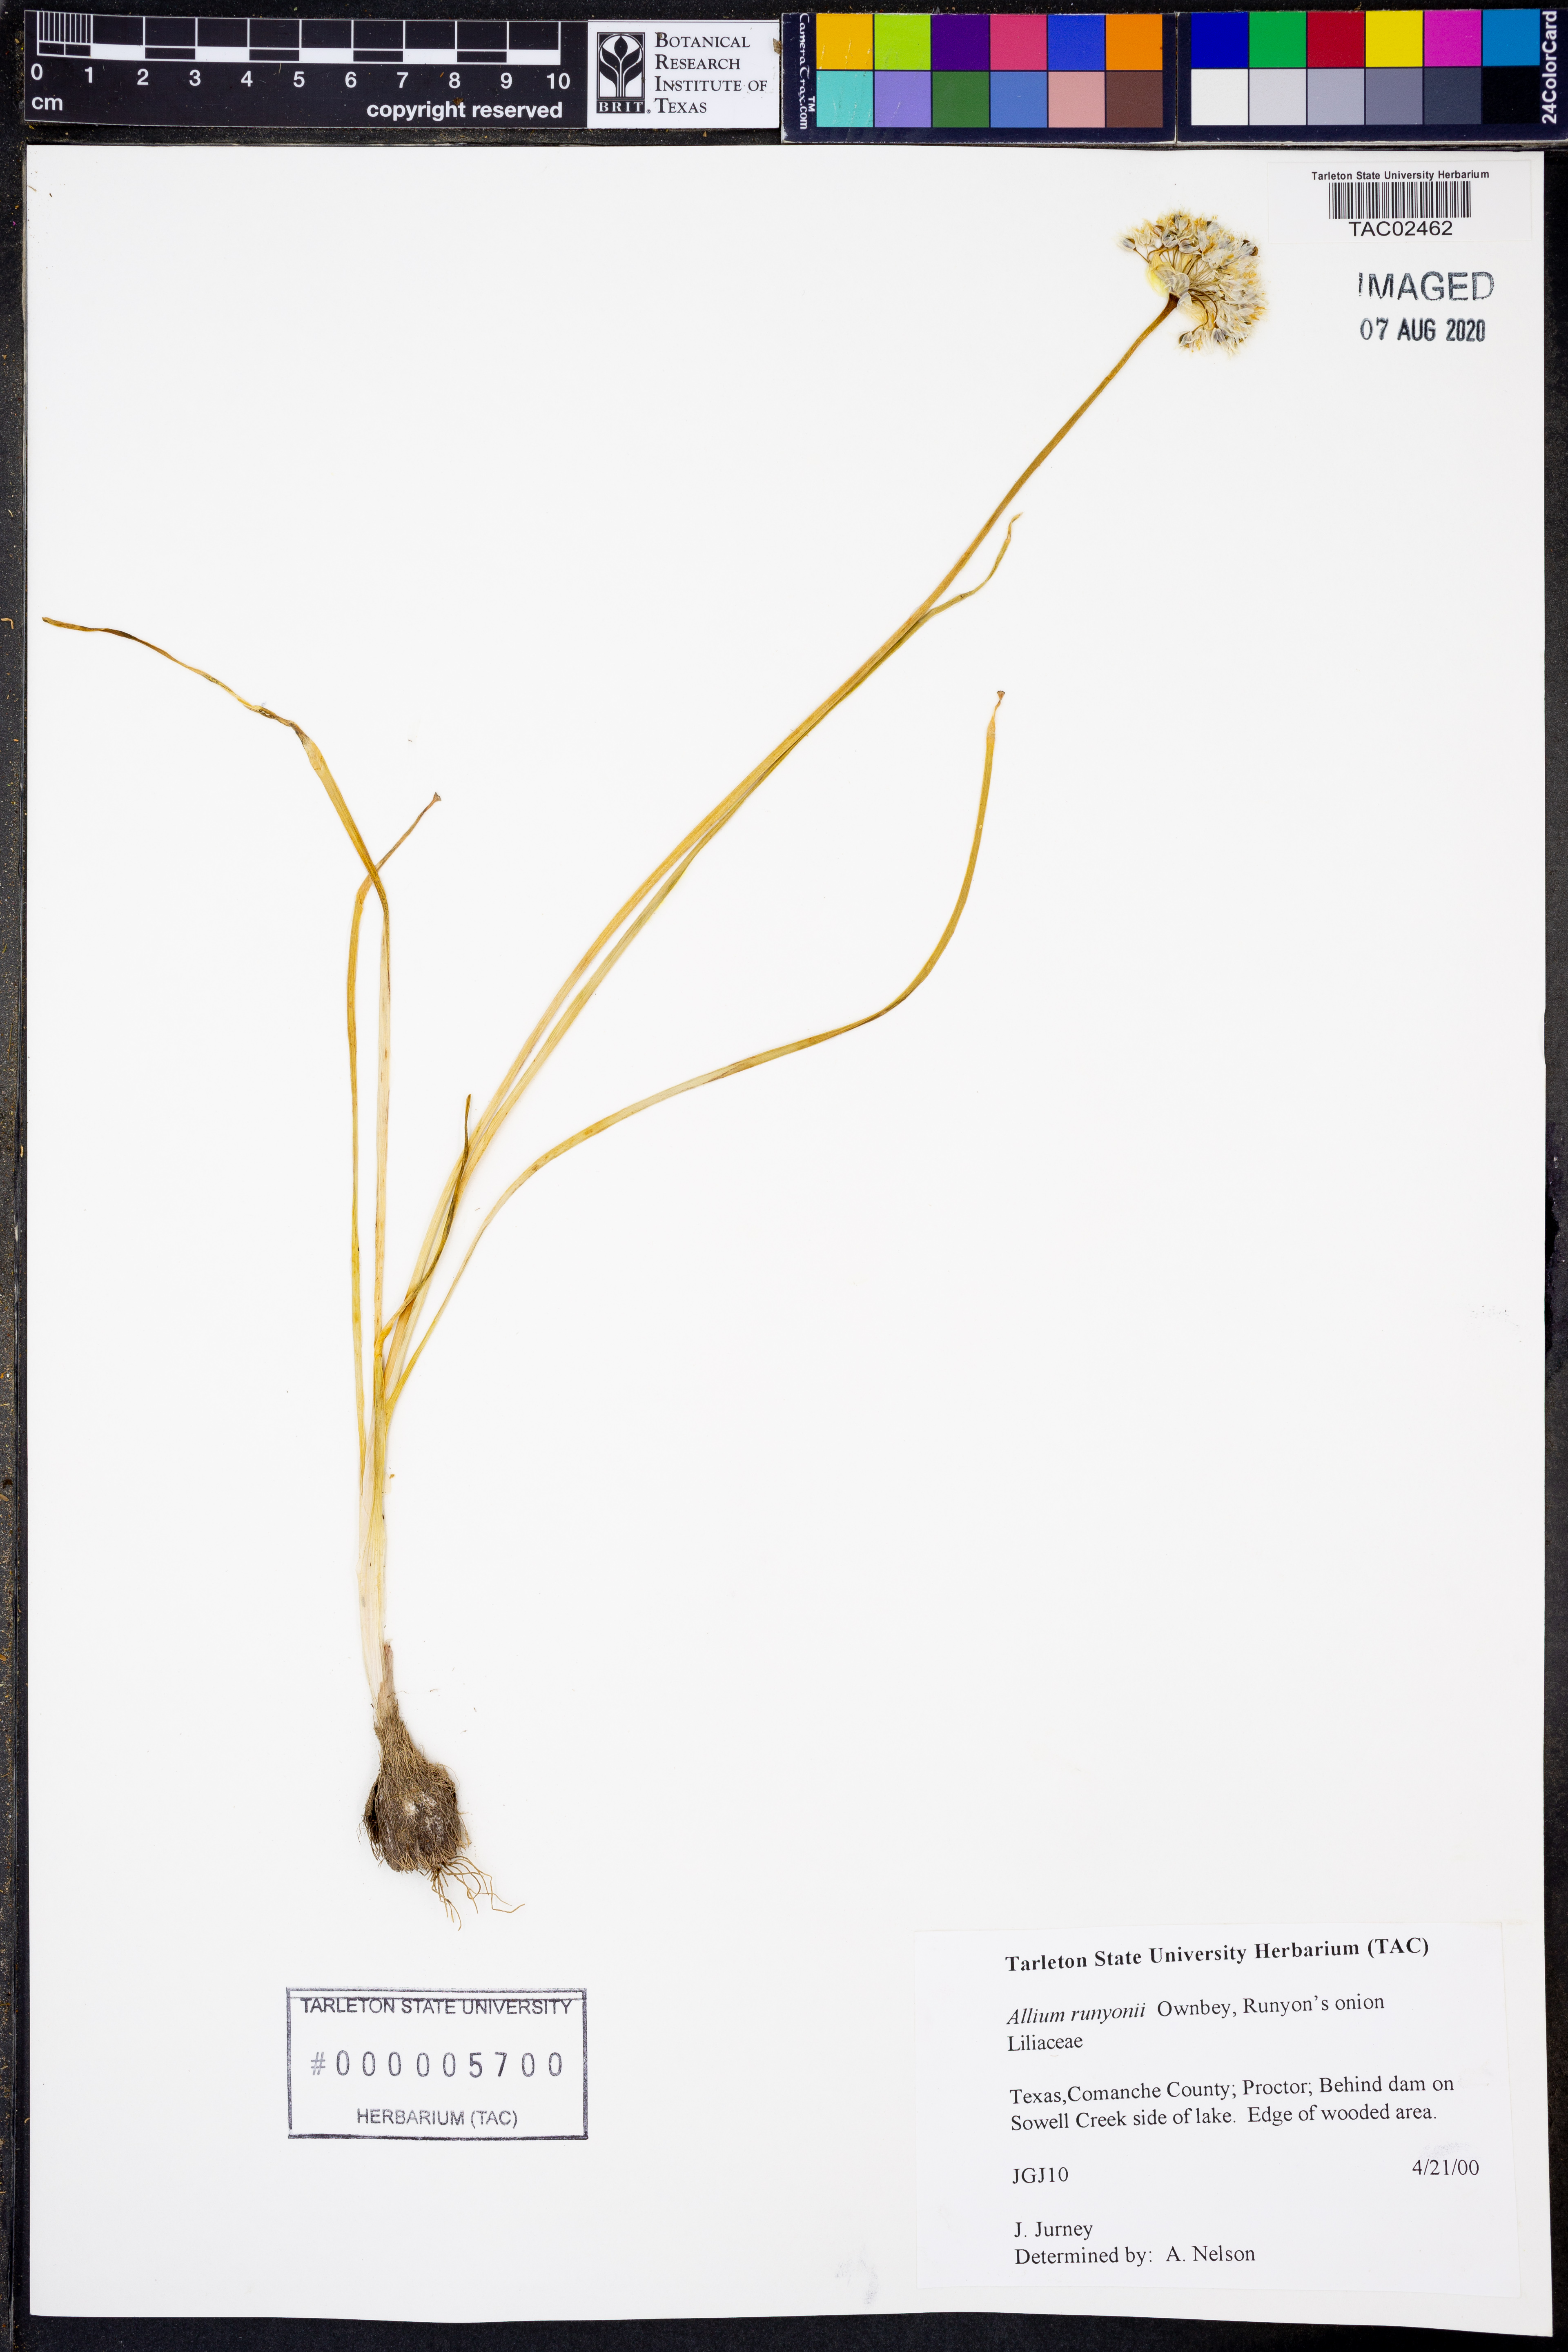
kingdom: Plantae
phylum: Tracheophyta
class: Liliopsida
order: Asparagales
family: Amaryllidaceae
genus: Allium
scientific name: Allium runyonii
